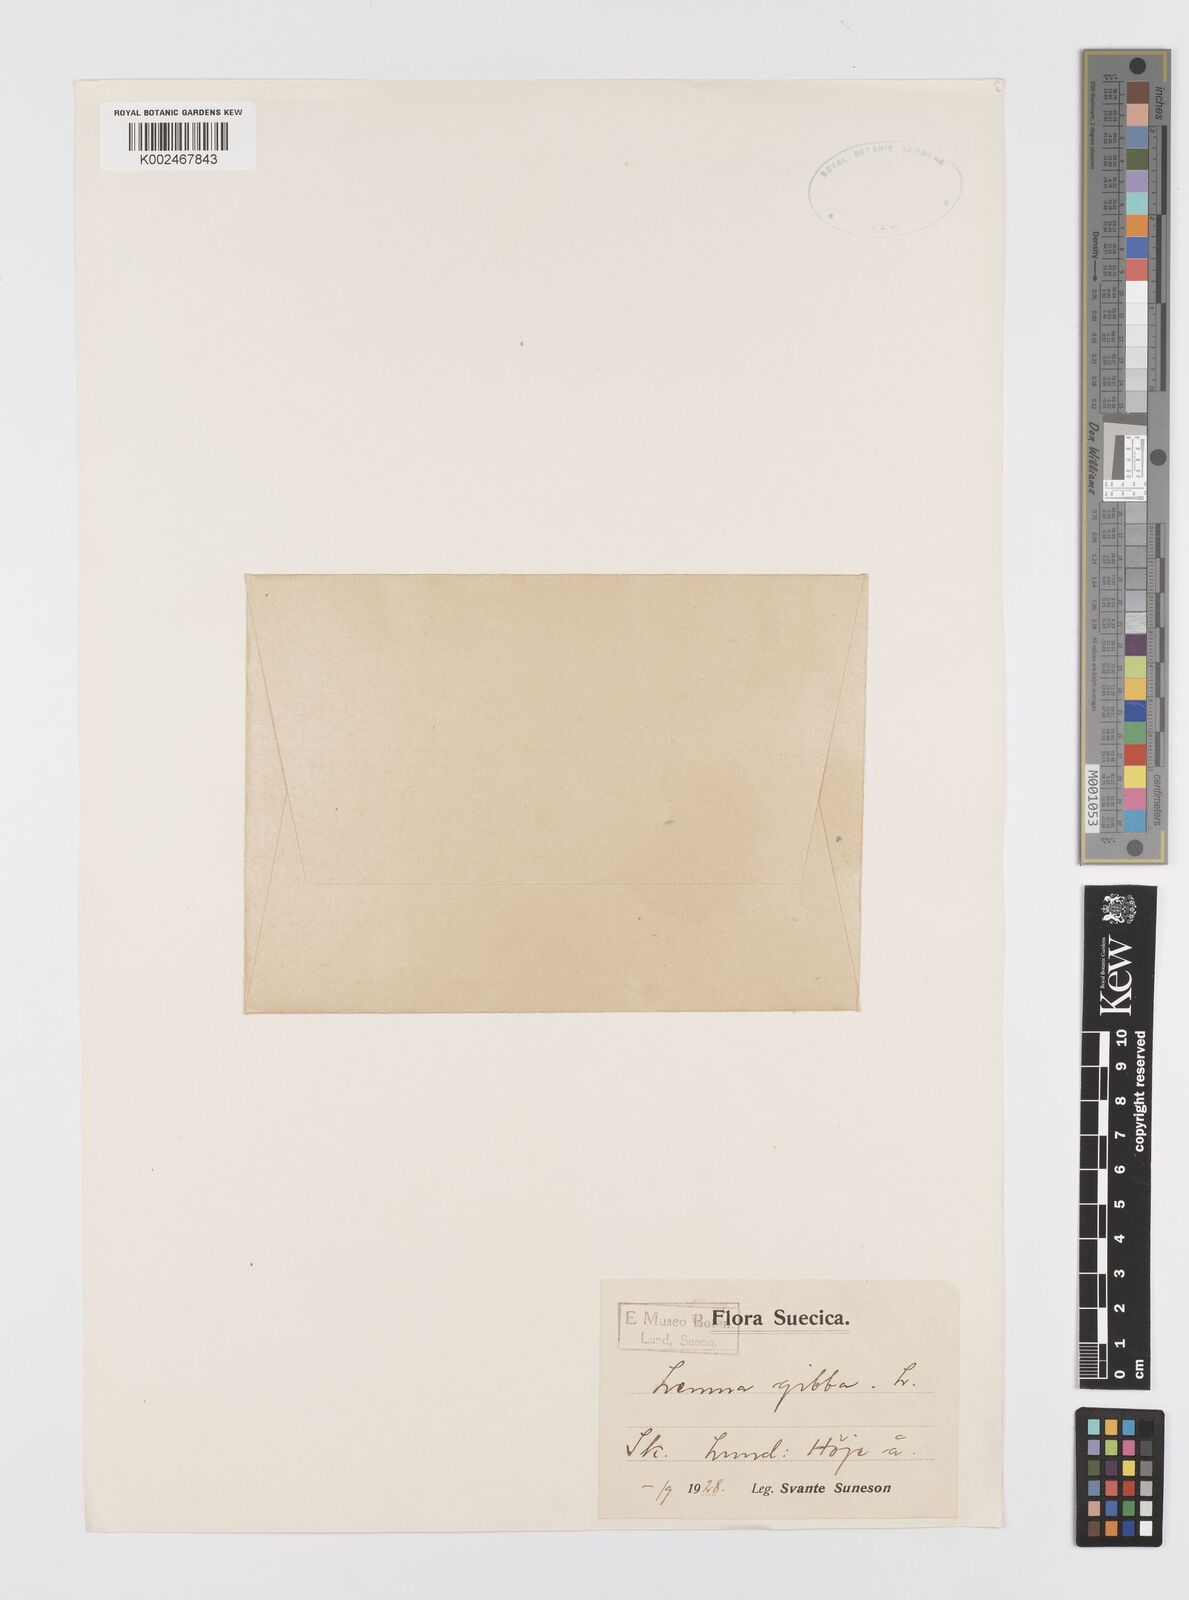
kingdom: Plantae
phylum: Tracheophyta
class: Liliopsida
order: Alismatales
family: Araceae
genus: Lemna
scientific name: Lemna gibba
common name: Fat duckweed
